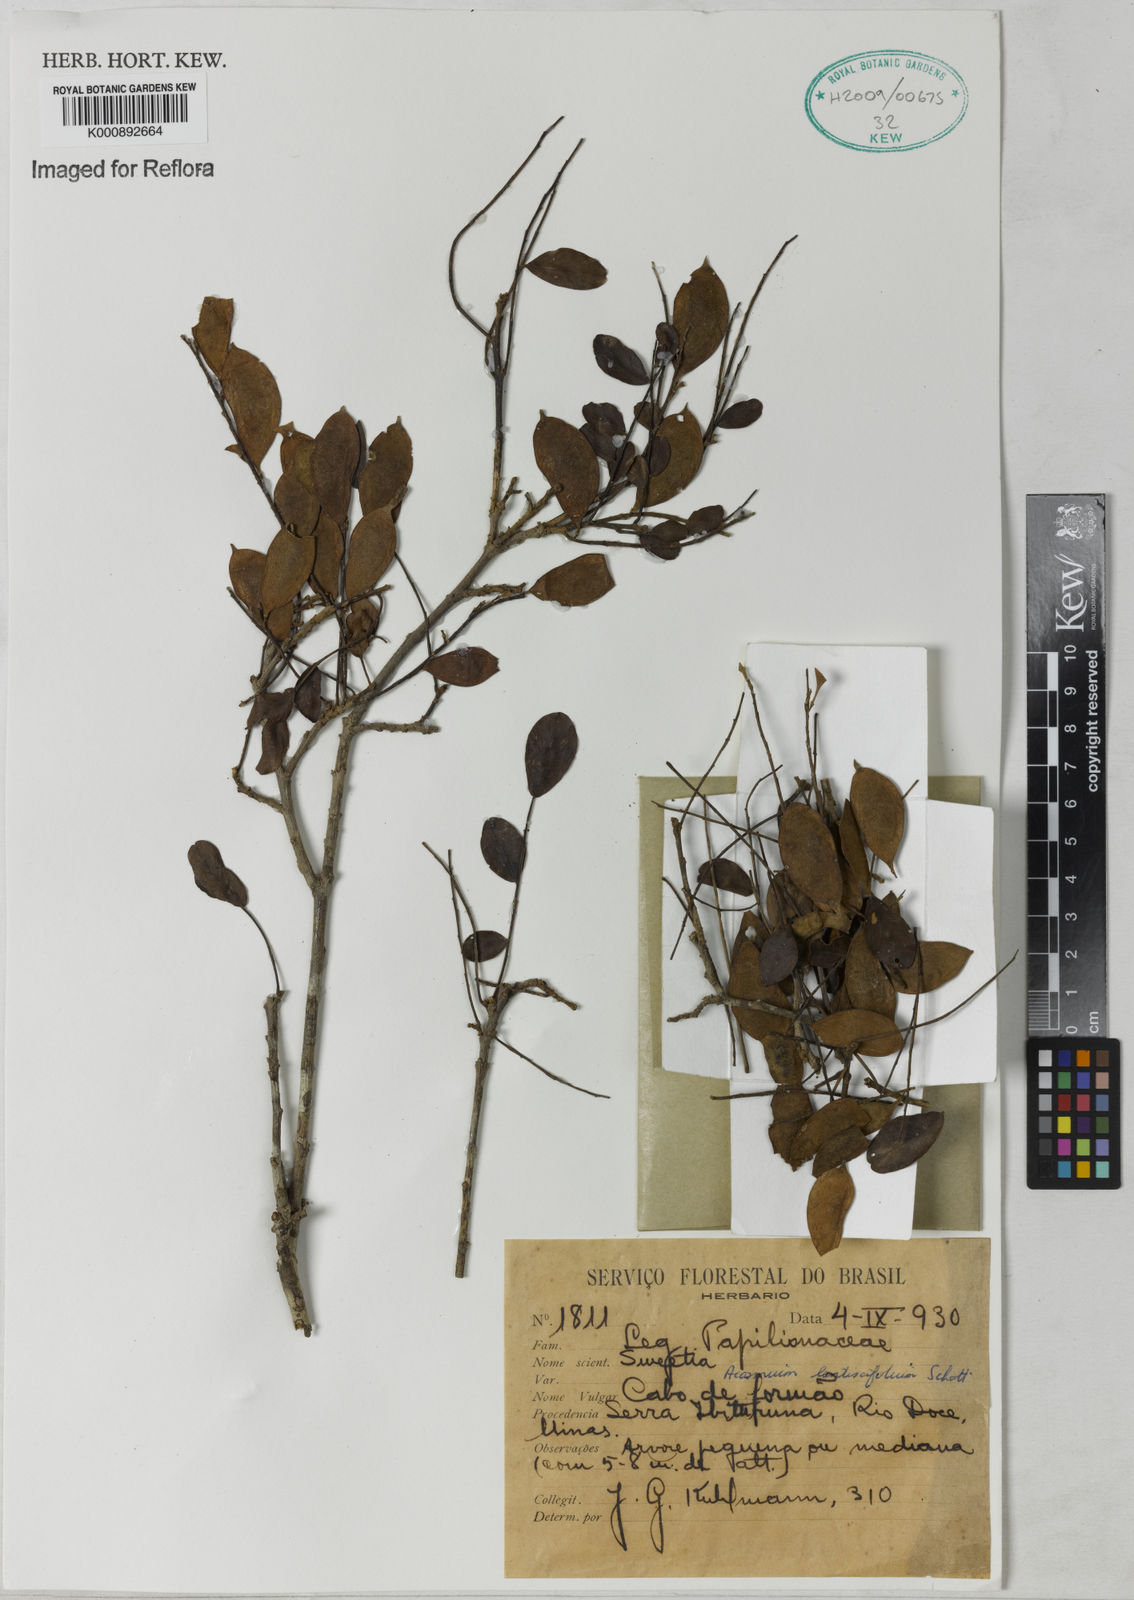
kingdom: Plantae
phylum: Tracheophyta
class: Magnoliopsida
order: Fabales
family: Fabaceae
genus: Acosmium
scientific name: Acosmium lentiscifolium
